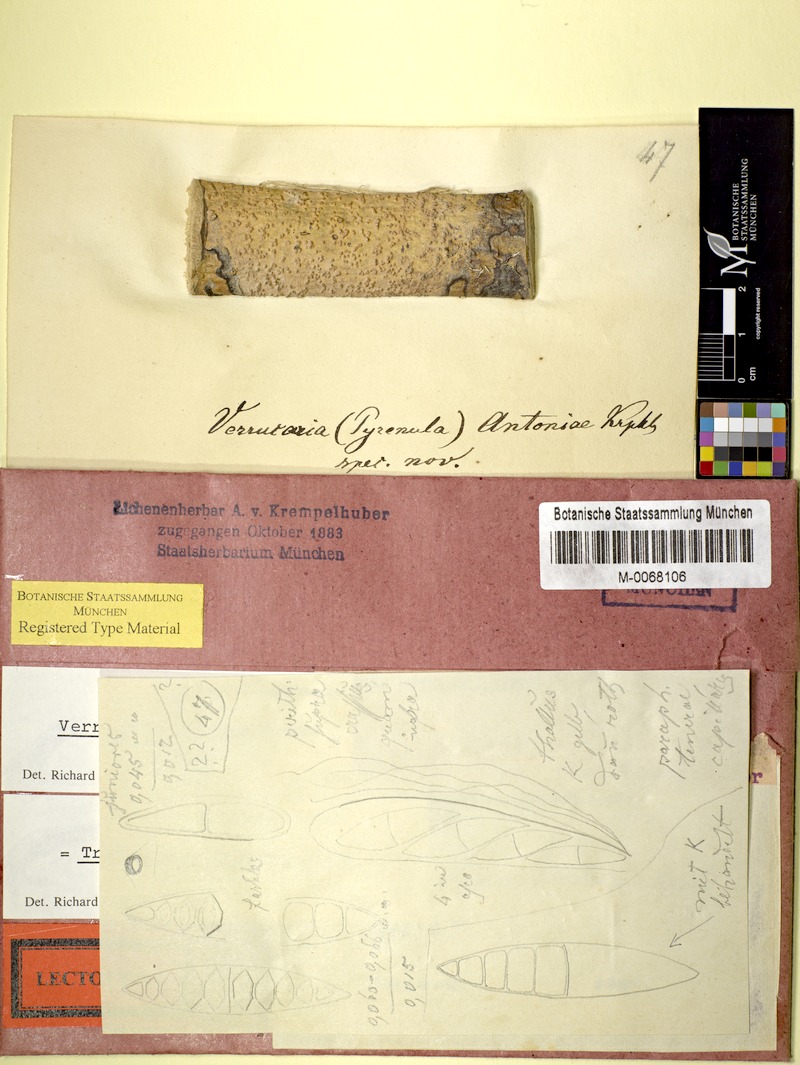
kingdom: Fungi
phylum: Ascomycota
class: Dothideomycetes
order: Trypetheliales
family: Trypetheliaceae
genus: Astrothelium
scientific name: Astrothelium cinereorosellum
